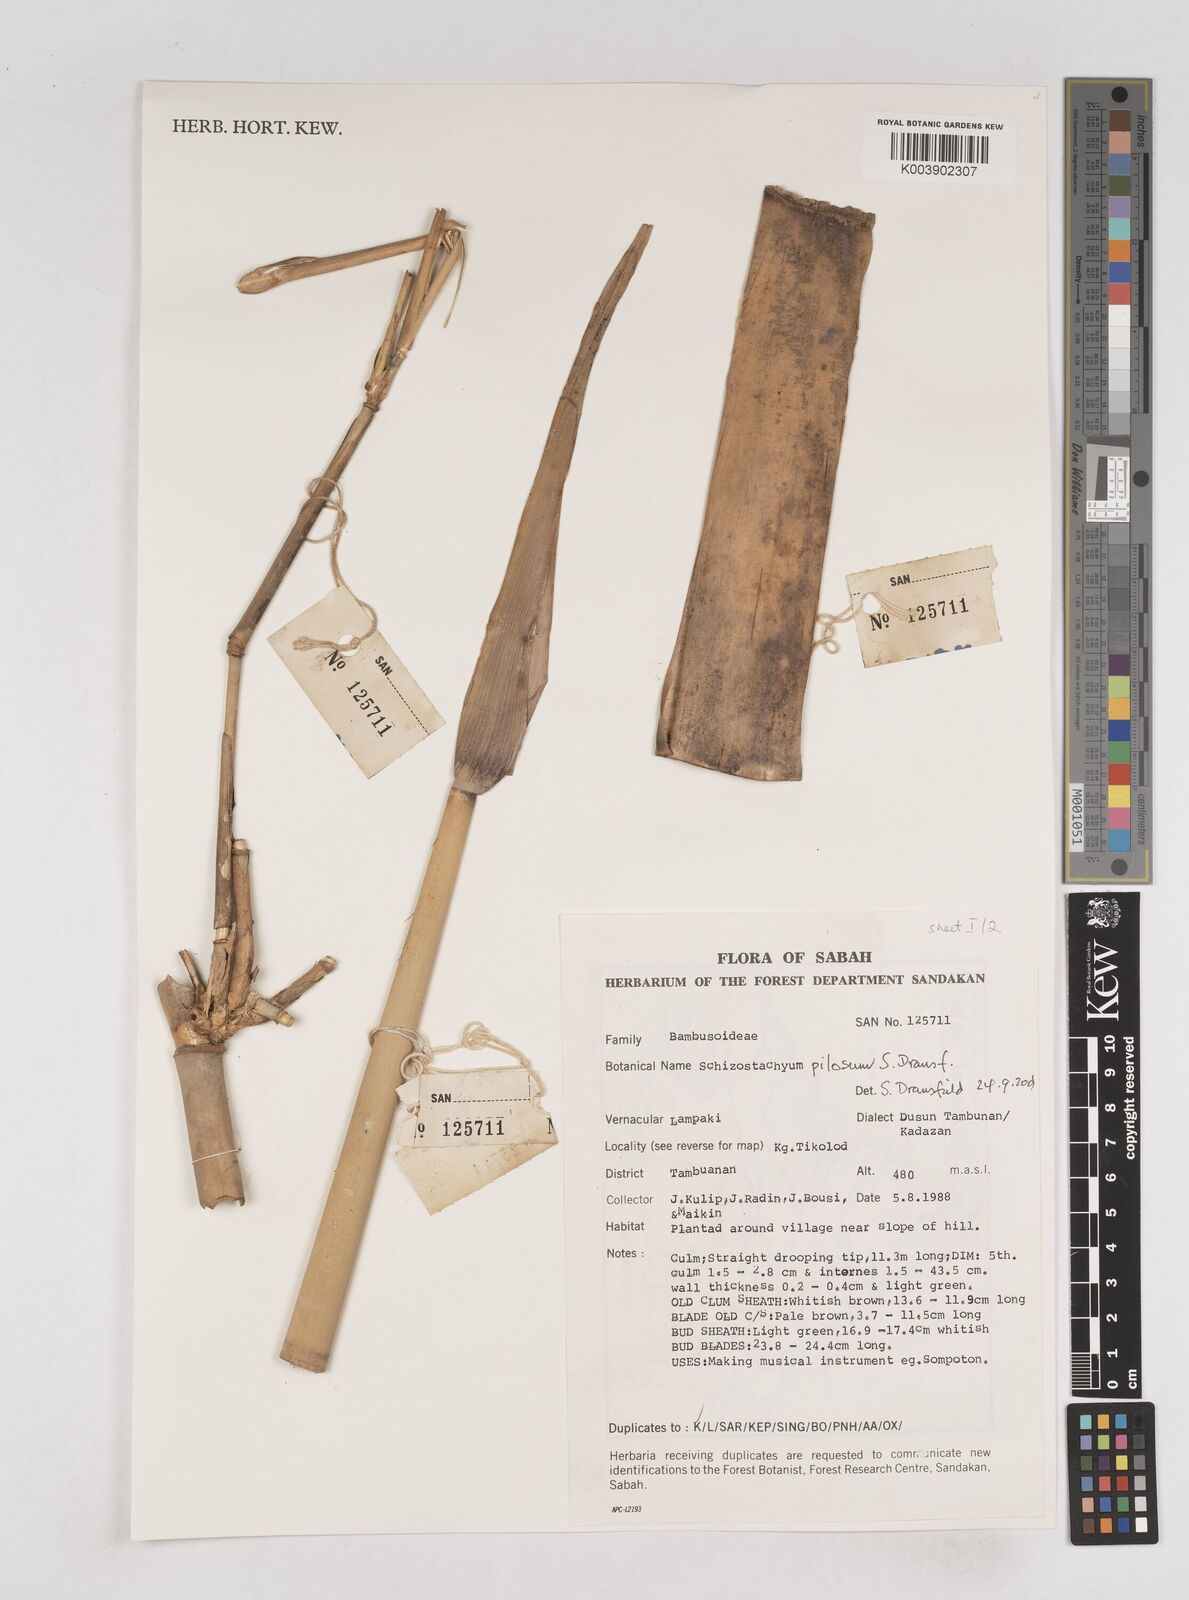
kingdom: Plantae
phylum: Tracheophyta
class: Liliopsida
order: Poales
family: Poaceae
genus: Schizostachyum
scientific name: Schizostachyum pilosum
